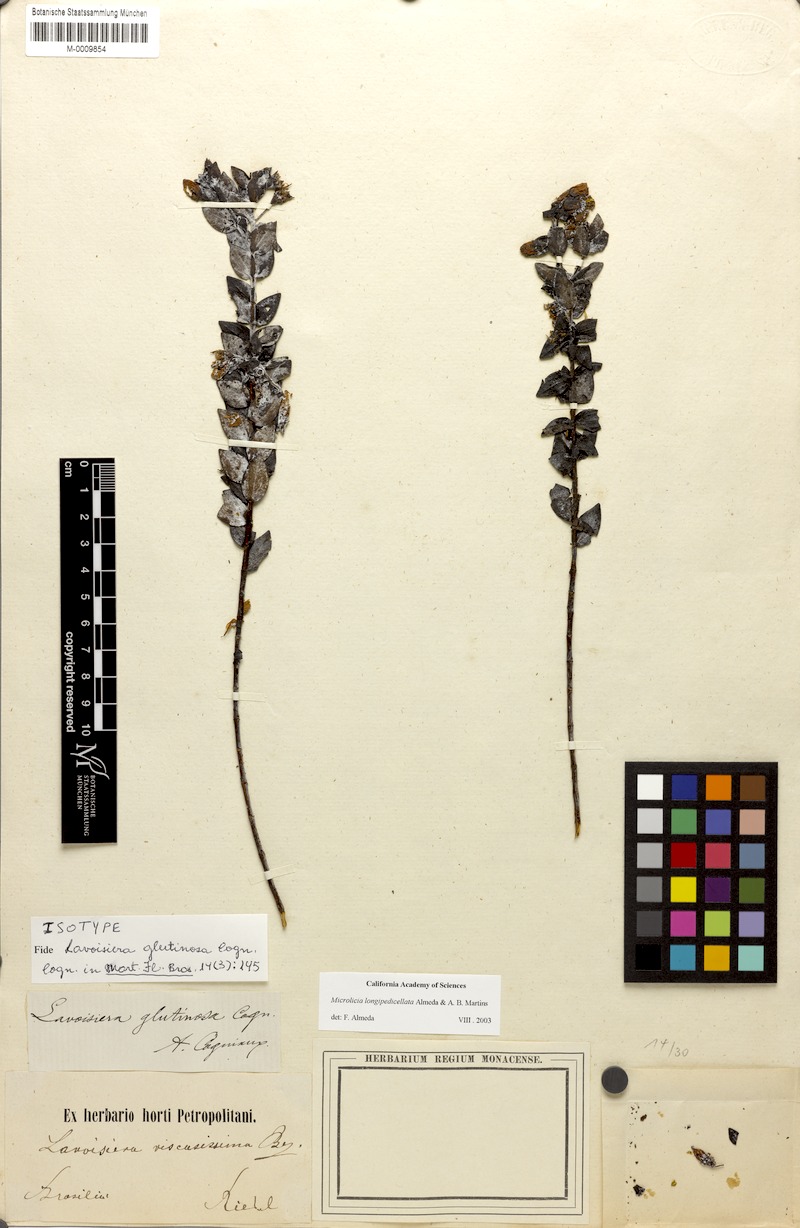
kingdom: Plantae
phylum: Tracheophyta
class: Magnoliopsida
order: Myrtales
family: Melastomataceae
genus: Microlicia
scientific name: Microlicia longipedicellata
